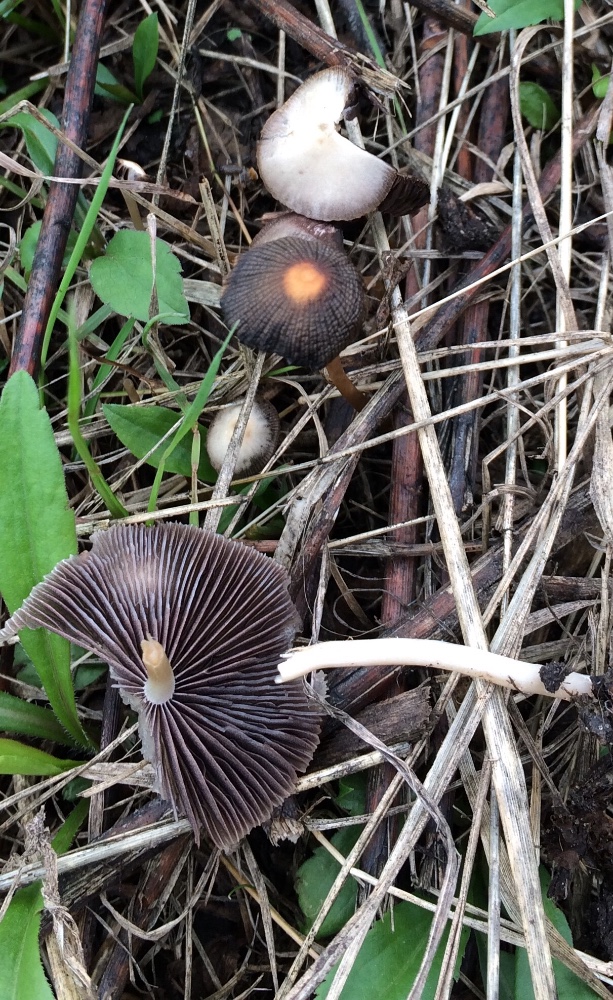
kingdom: Fungi
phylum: Basidiomycota
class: Agaricomycetes
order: Agaricales
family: Psathyrellaceae
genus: Psathyrella
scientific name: Psathyrella
